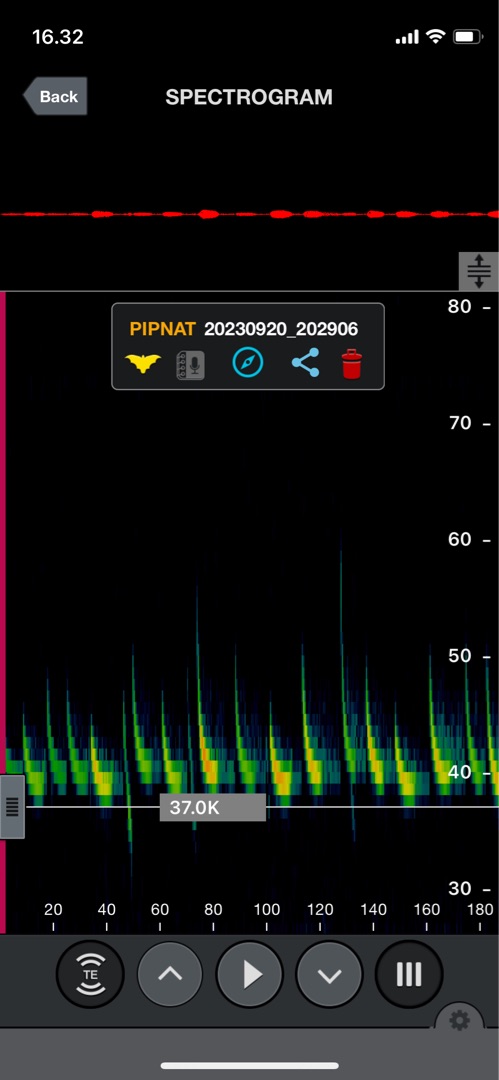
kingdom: Animalia
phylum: Chordata
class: Mammalia
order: Chiroptera
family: Vespertilionidae
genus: Pipistrellus
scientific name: Pipistrellus nathusii
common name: Troldflagermus
